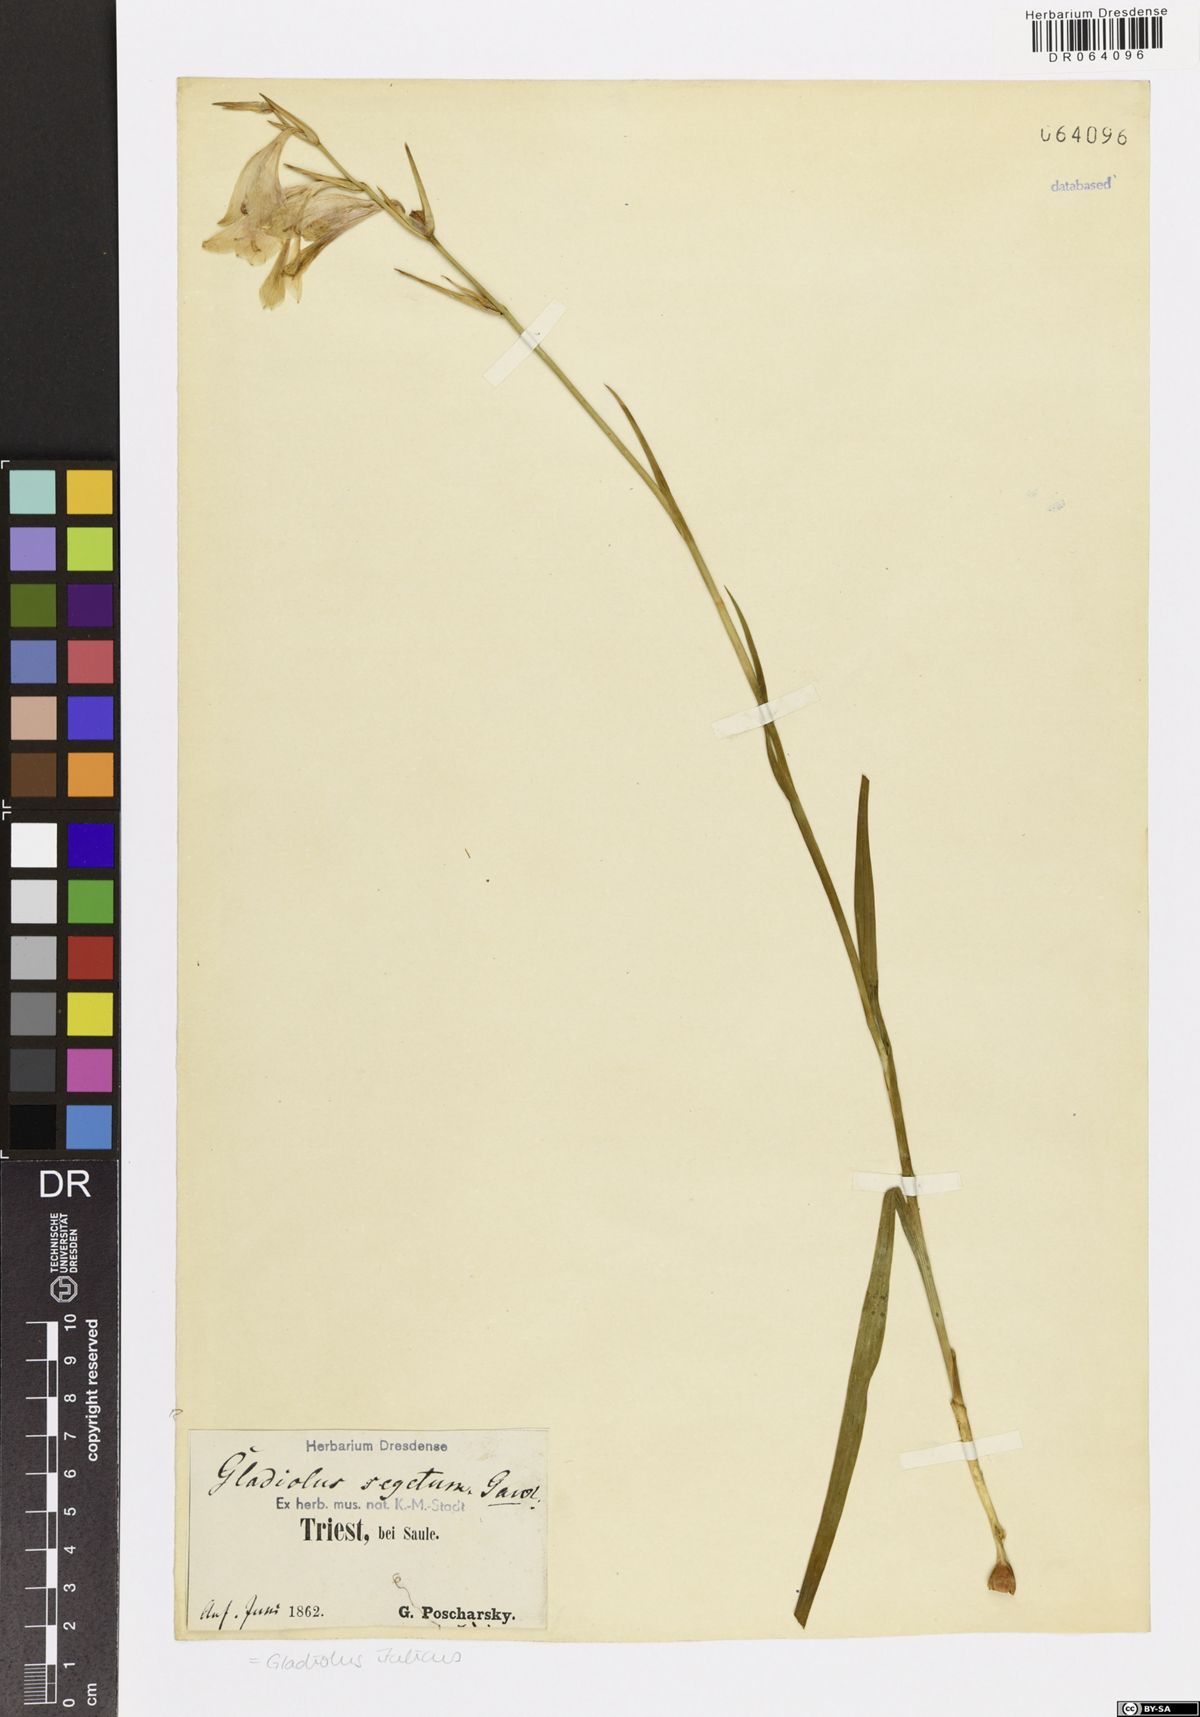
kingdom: Plantae
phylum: Tracheophyta
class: Liliopsida
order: Asparagales
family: Iridaceae
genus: Gladiolus
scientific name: Gladiolus italicus
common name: Field gladiolus
